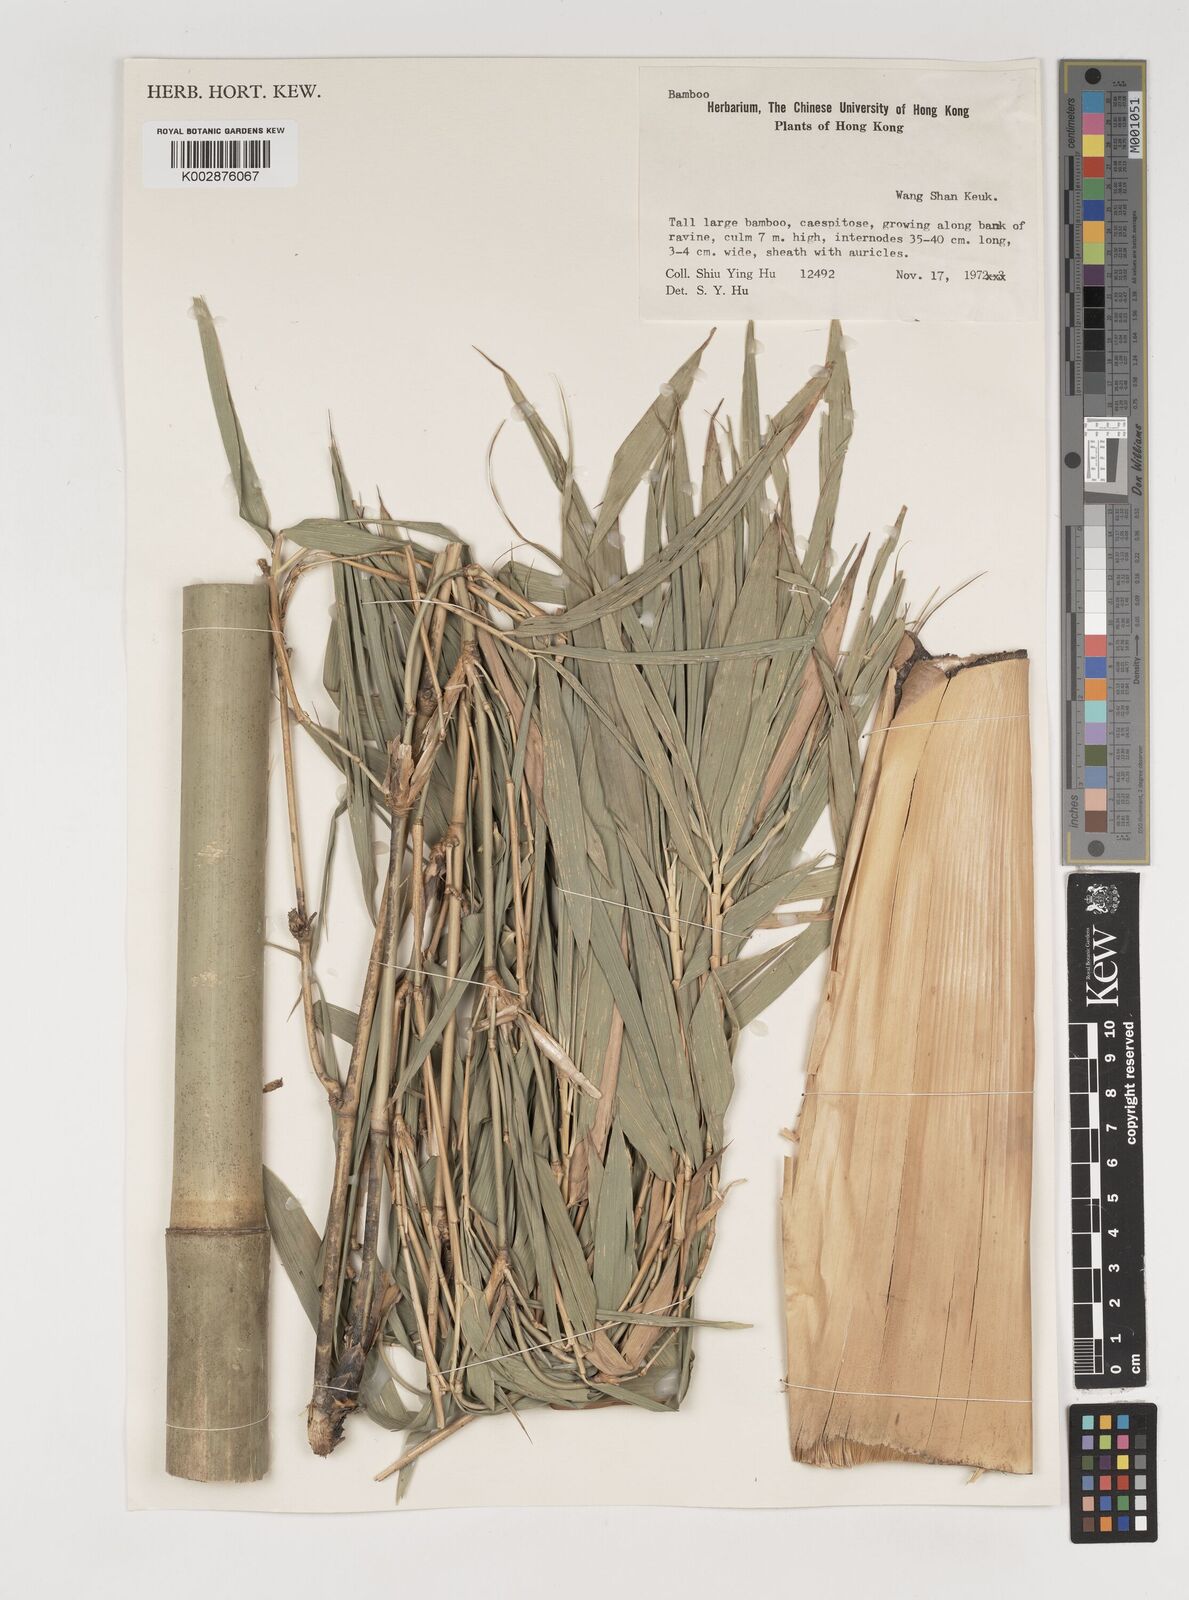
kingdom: Plantae
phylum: Tracheophyta
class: Liliopsida
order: Poales
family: Poaceae
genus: Bambusa
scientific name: Bambusa
